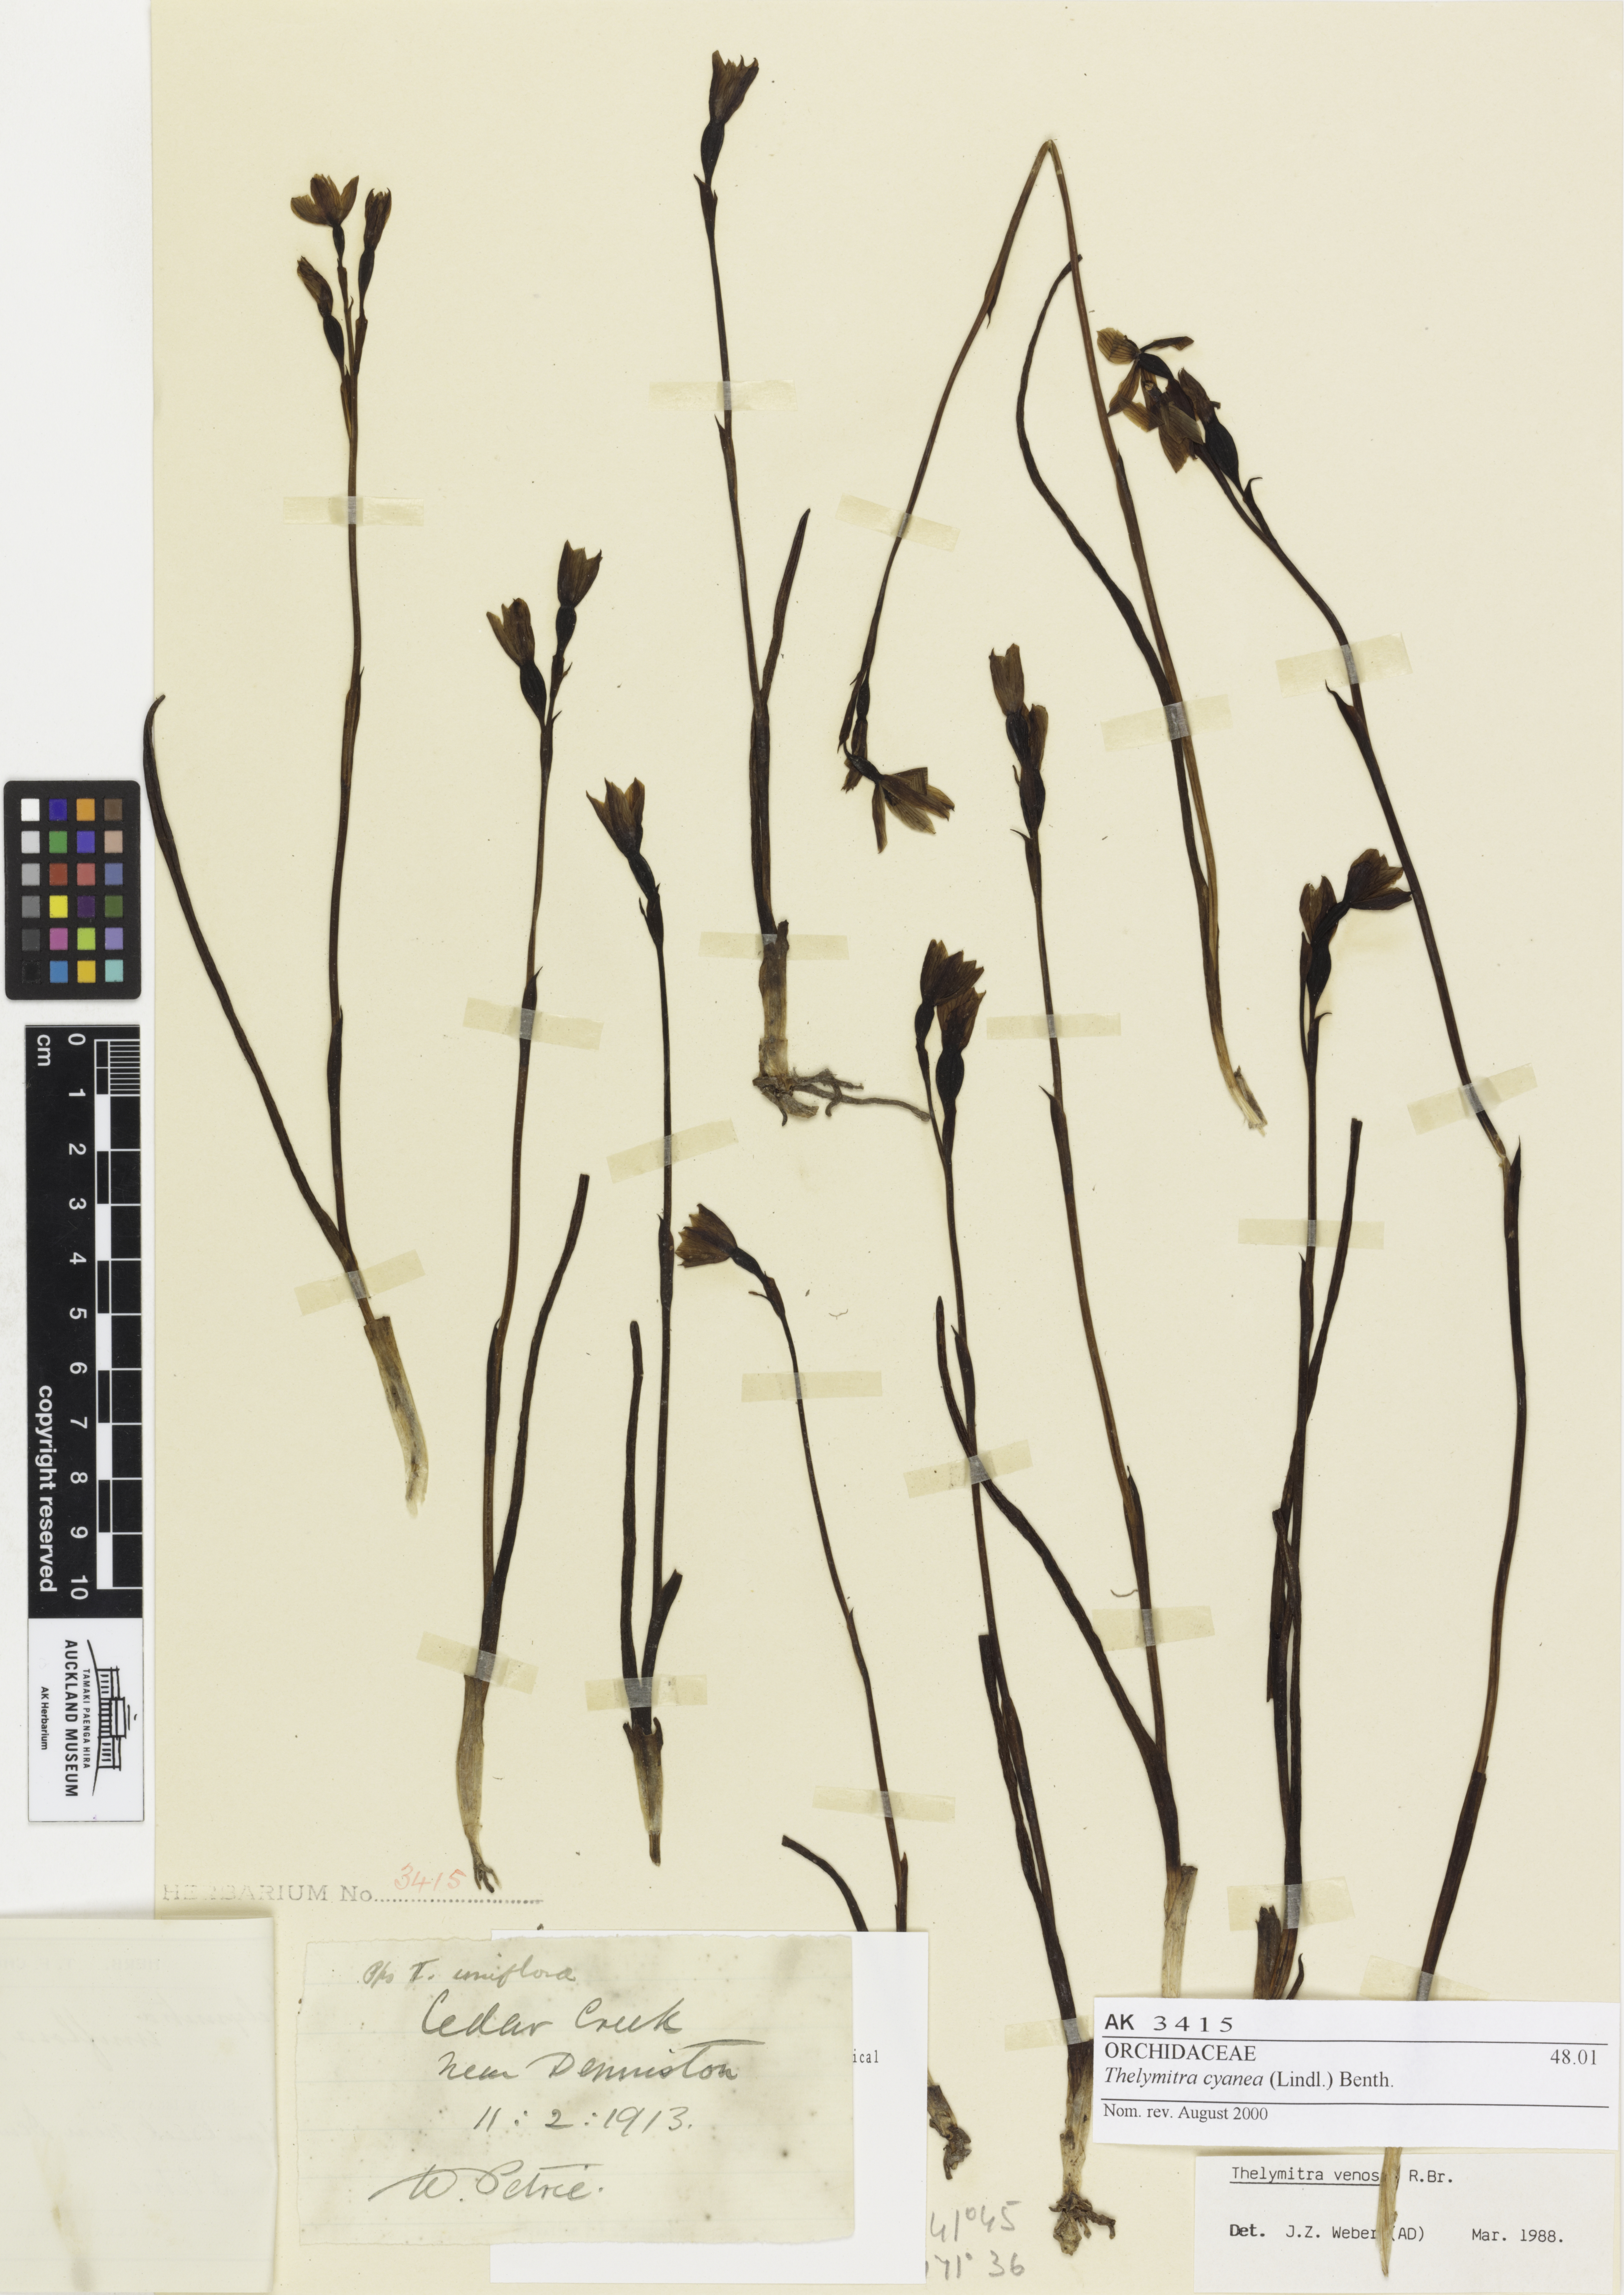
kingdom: Plantae
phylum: Tracheophyta
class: Liliopsida
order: Asparagales
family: Orchidaceae
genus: Thelymitra
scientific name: Thelymitra cyanea
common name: Blue sun-orchid
